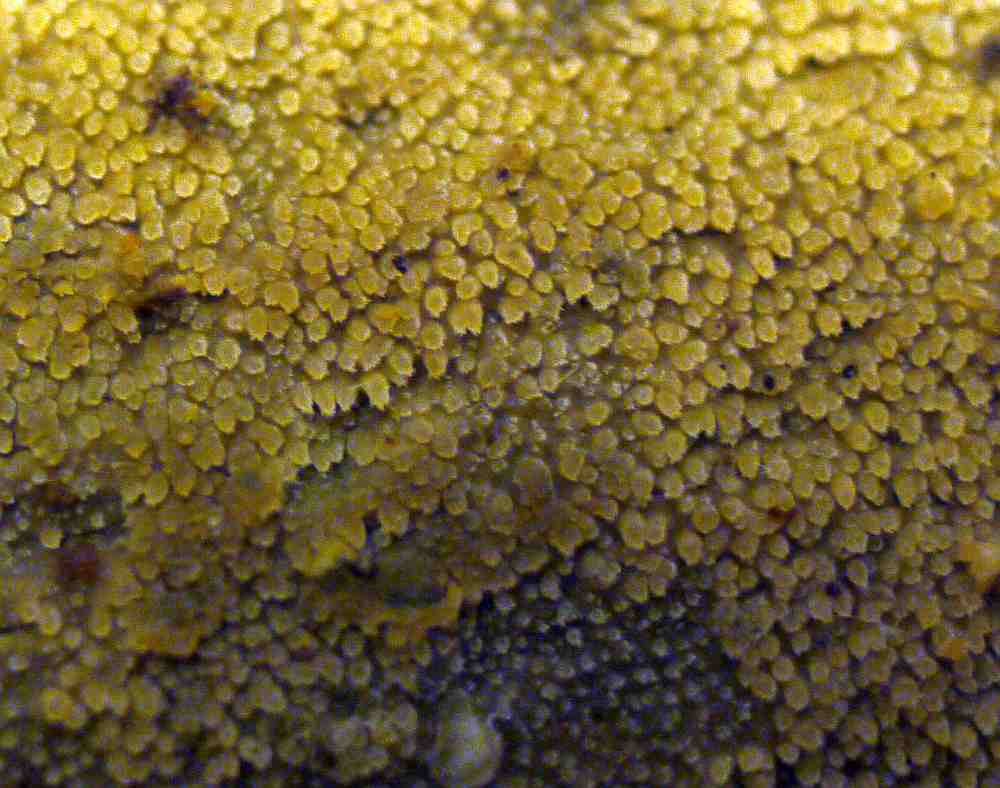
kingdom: Fungi
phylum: Basidiomycota
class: Agaricomycetes
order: Hymenochaetales
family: Rickenellaceae
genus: Resinicium
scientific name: Resinicium bicolor
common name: almindelig vokstand
